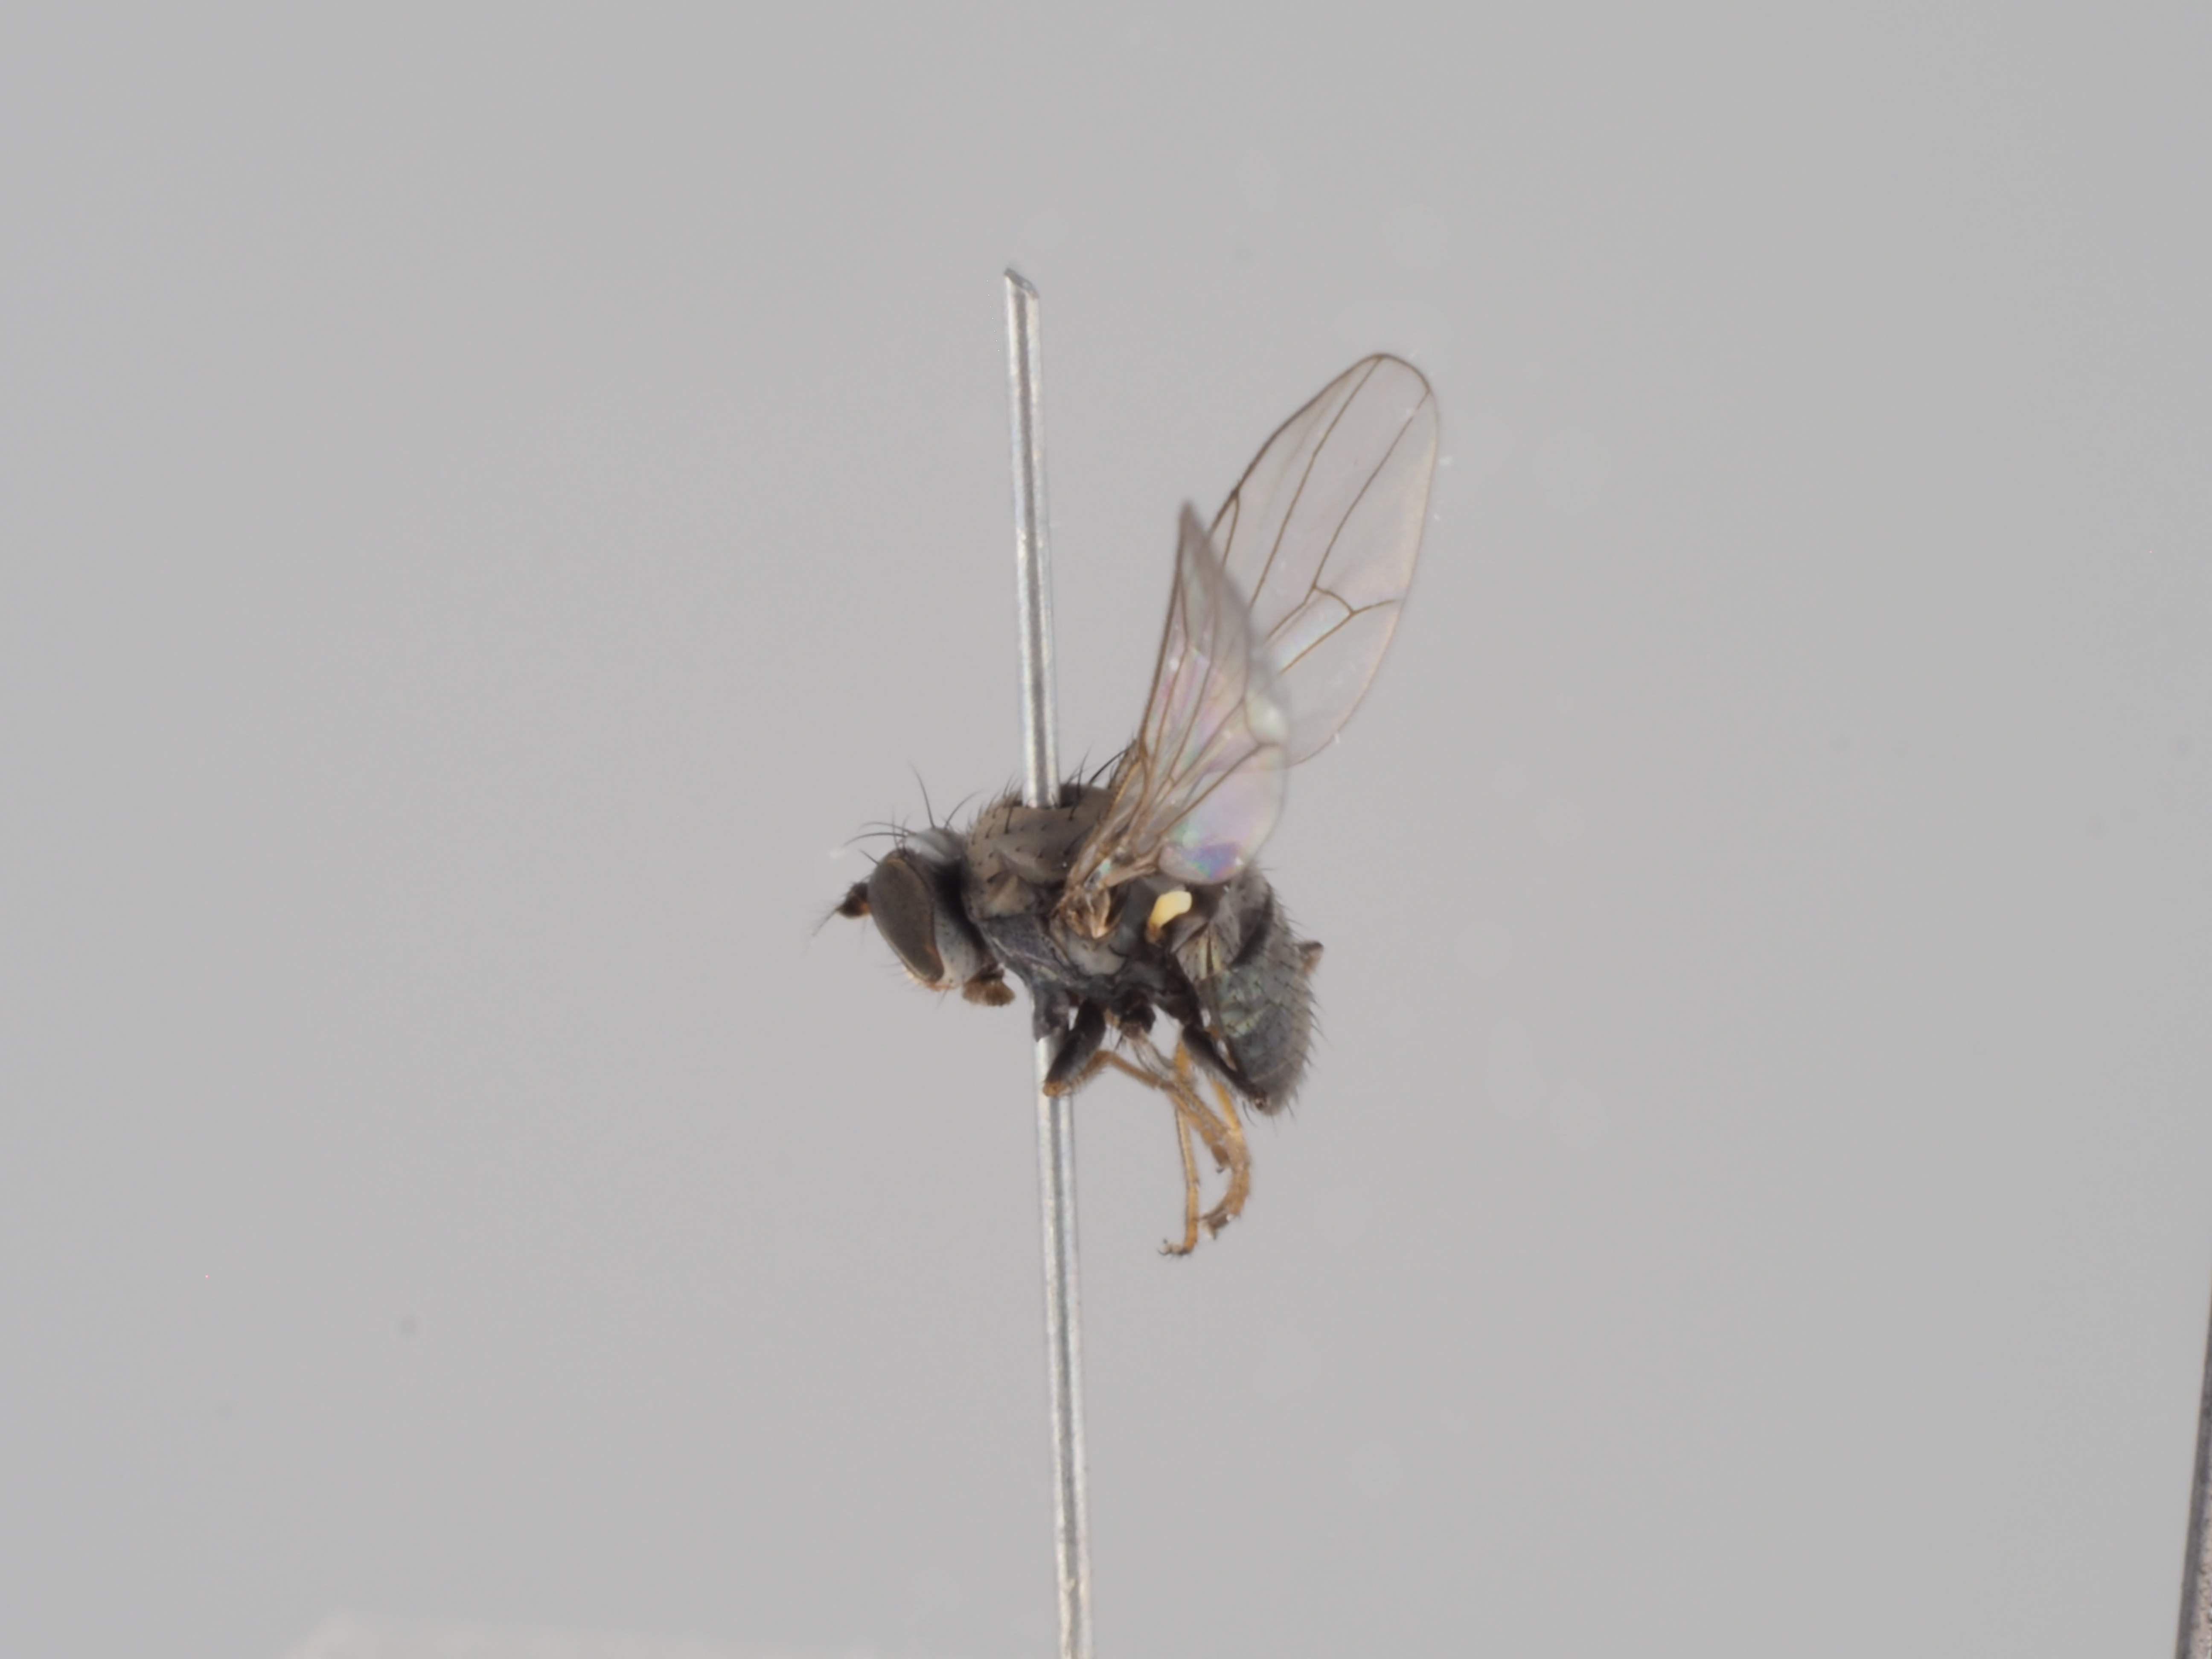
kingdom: Animalia
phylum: Arthropoda
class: Insecta
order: Diptera
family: Ephydridae
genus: Hydrellia
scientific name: Hydrellia obscura
